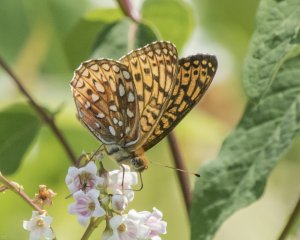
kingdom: Animalia
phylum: Arthropoda
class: Insecta
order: Lepidoptera
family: Nymphalidae
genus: Speyeria
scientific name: Speyeria atlantis
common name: Atlantis Fritillary
